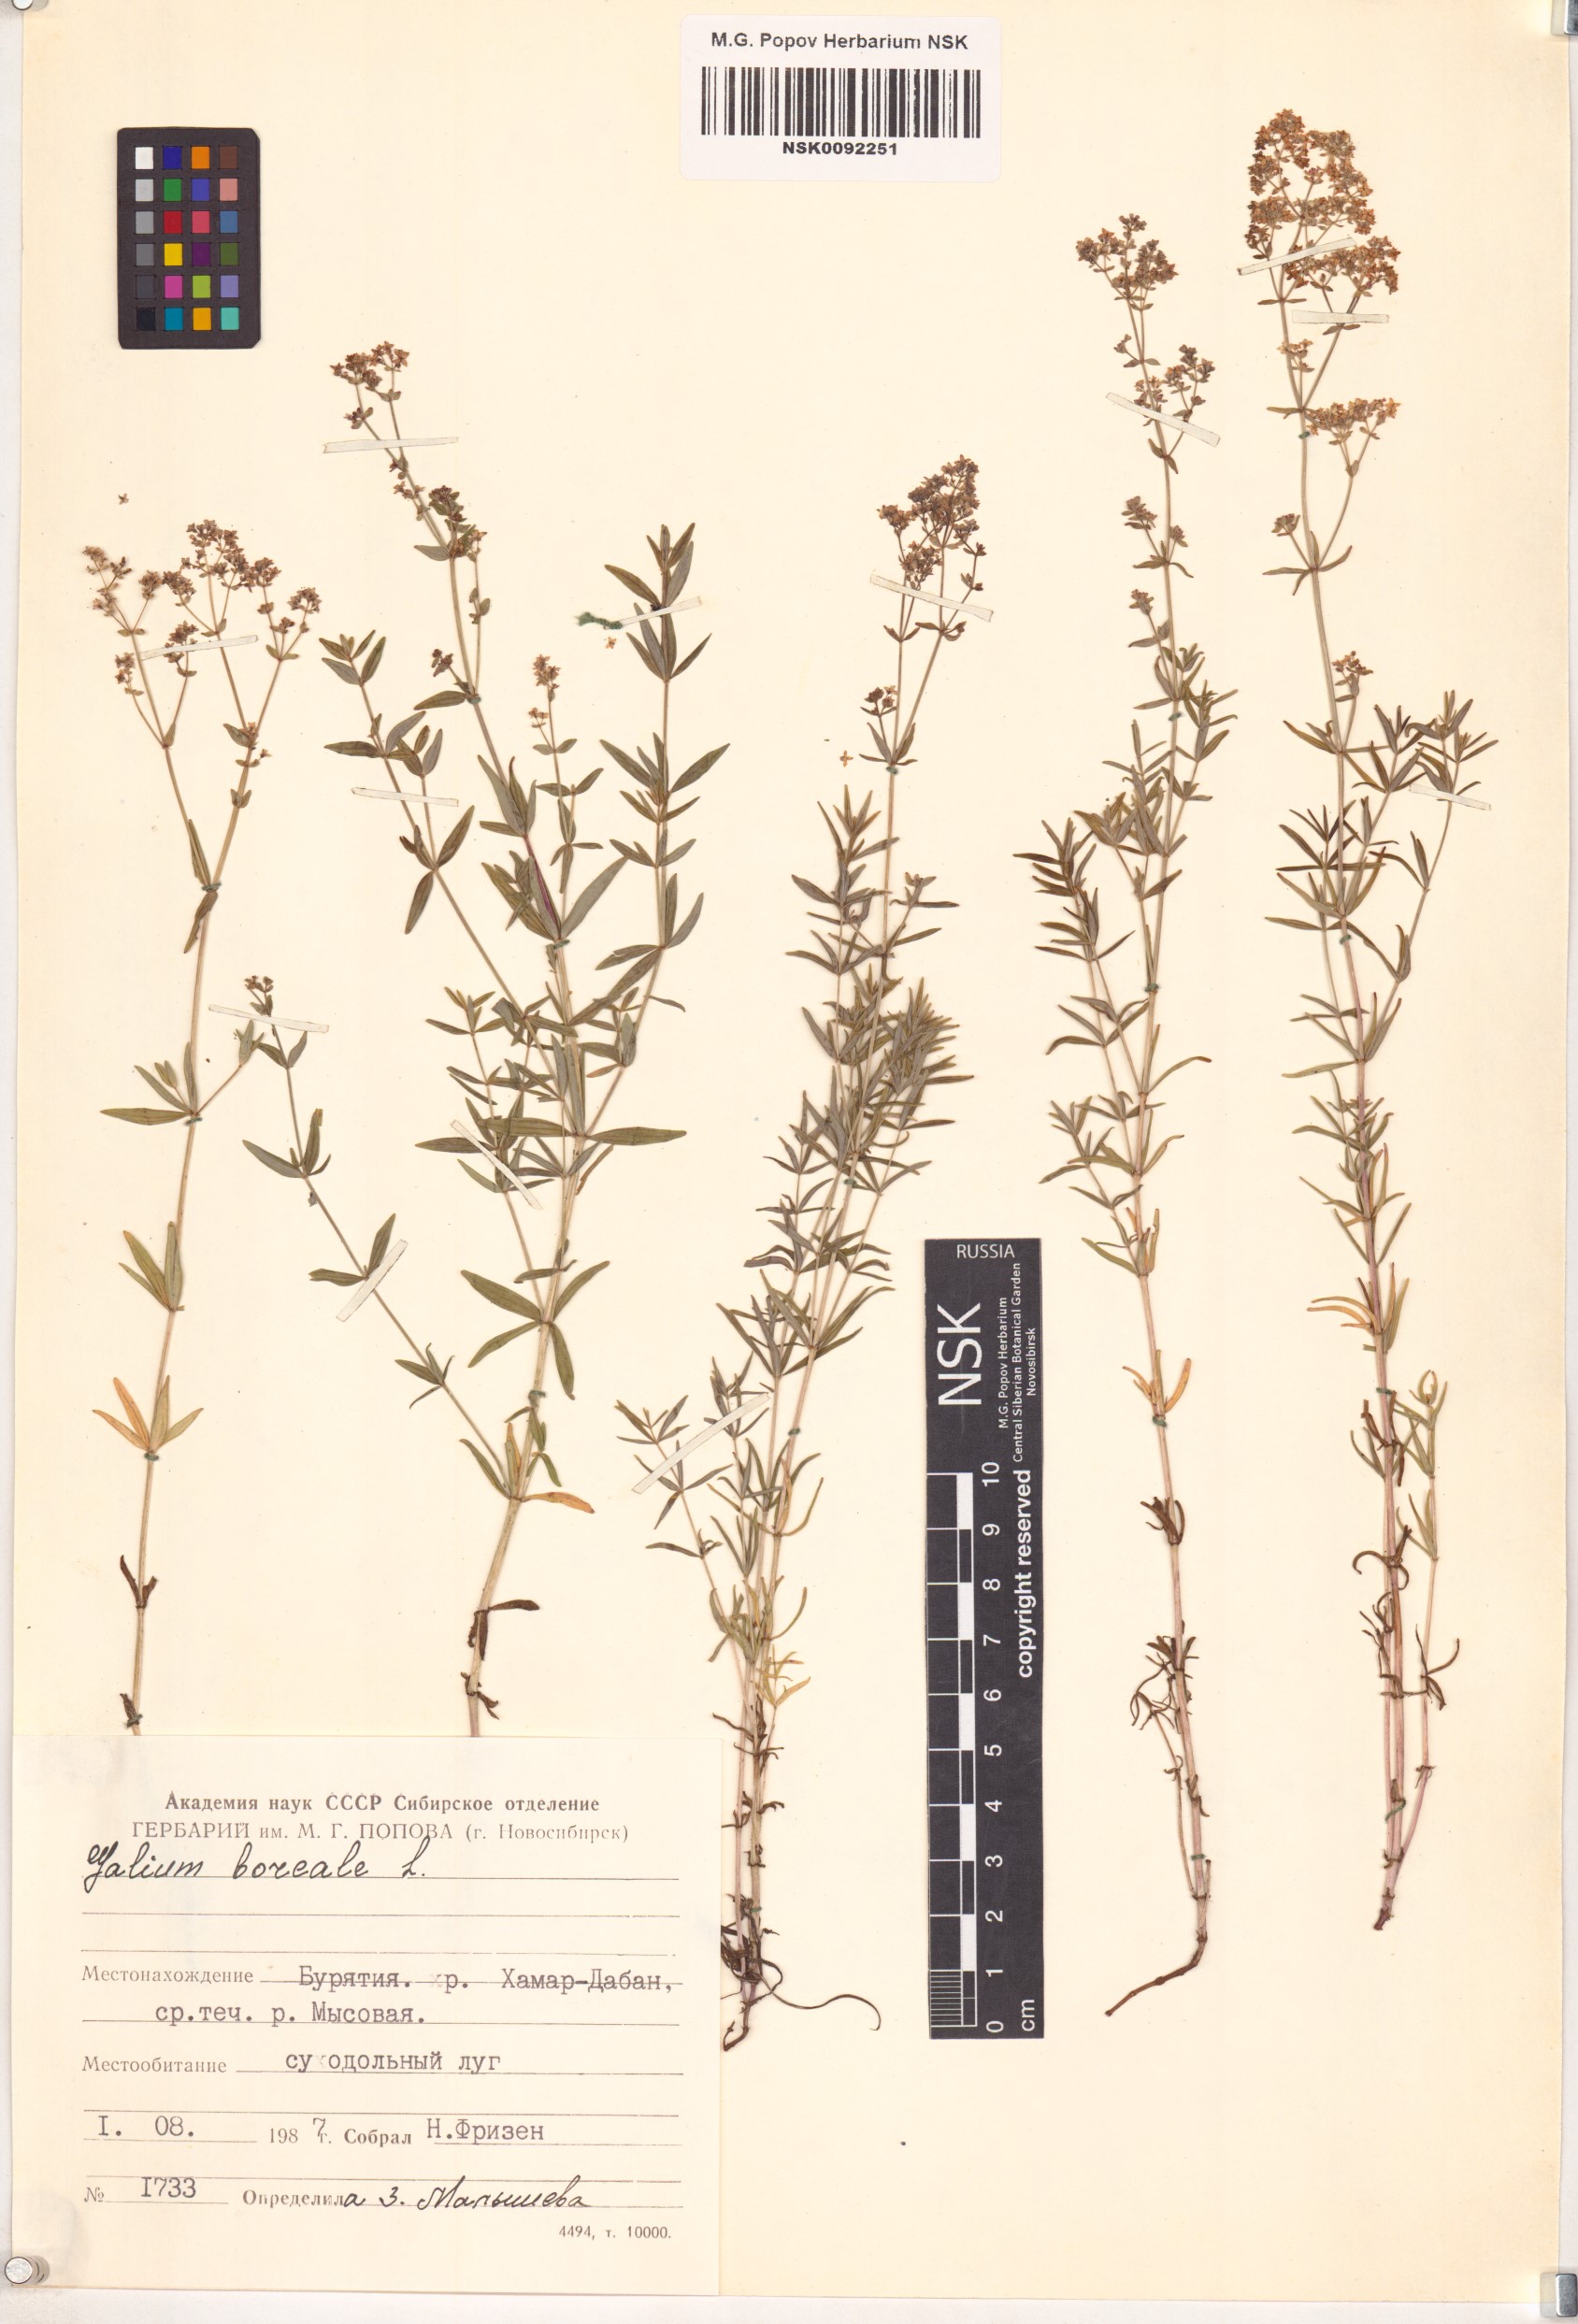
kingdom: Plantae
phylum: Tracheophyta
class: Magnoliopsida
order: Gentianales
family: Rubiaceae
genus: Galium
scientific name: Galium boreale
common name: Northern bedstraw
